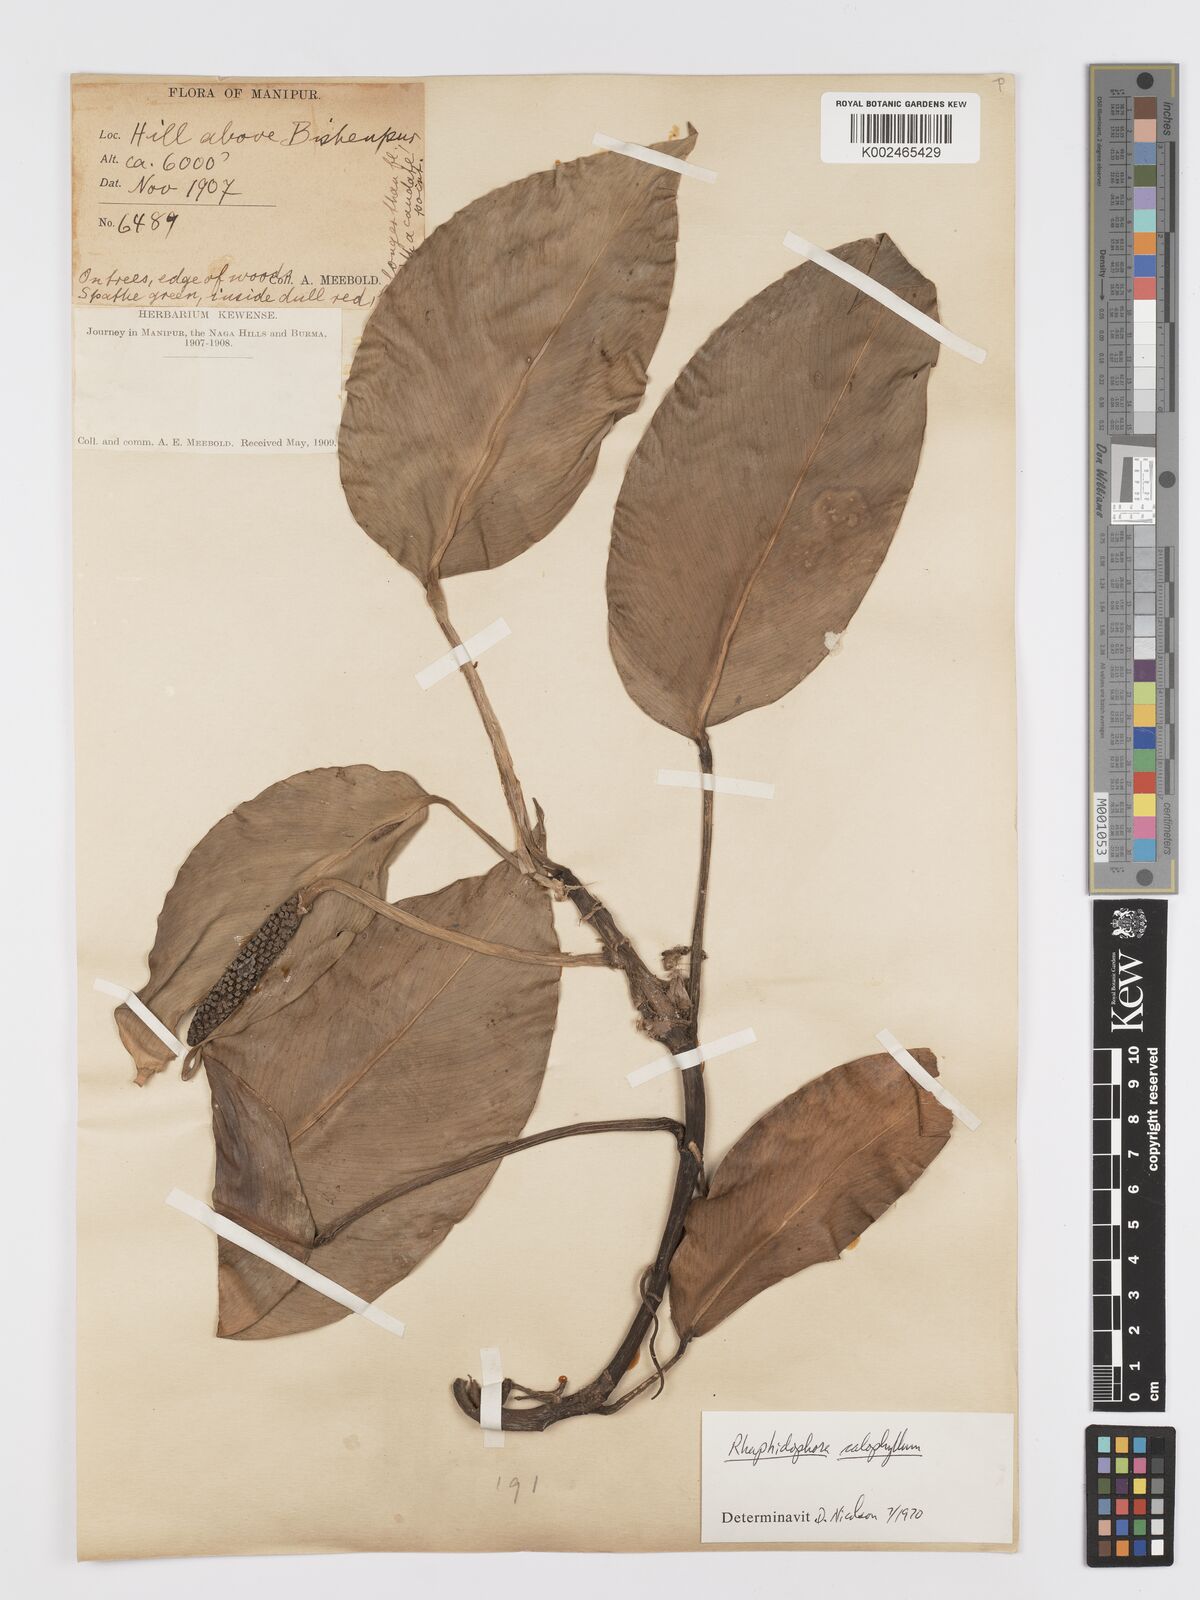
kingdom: Plantae
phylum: Tracheophyta
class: Liliopsida
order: Alismatales
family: Araceae
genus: Rhaphidophora
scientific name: Rhaphidophora calophylla
